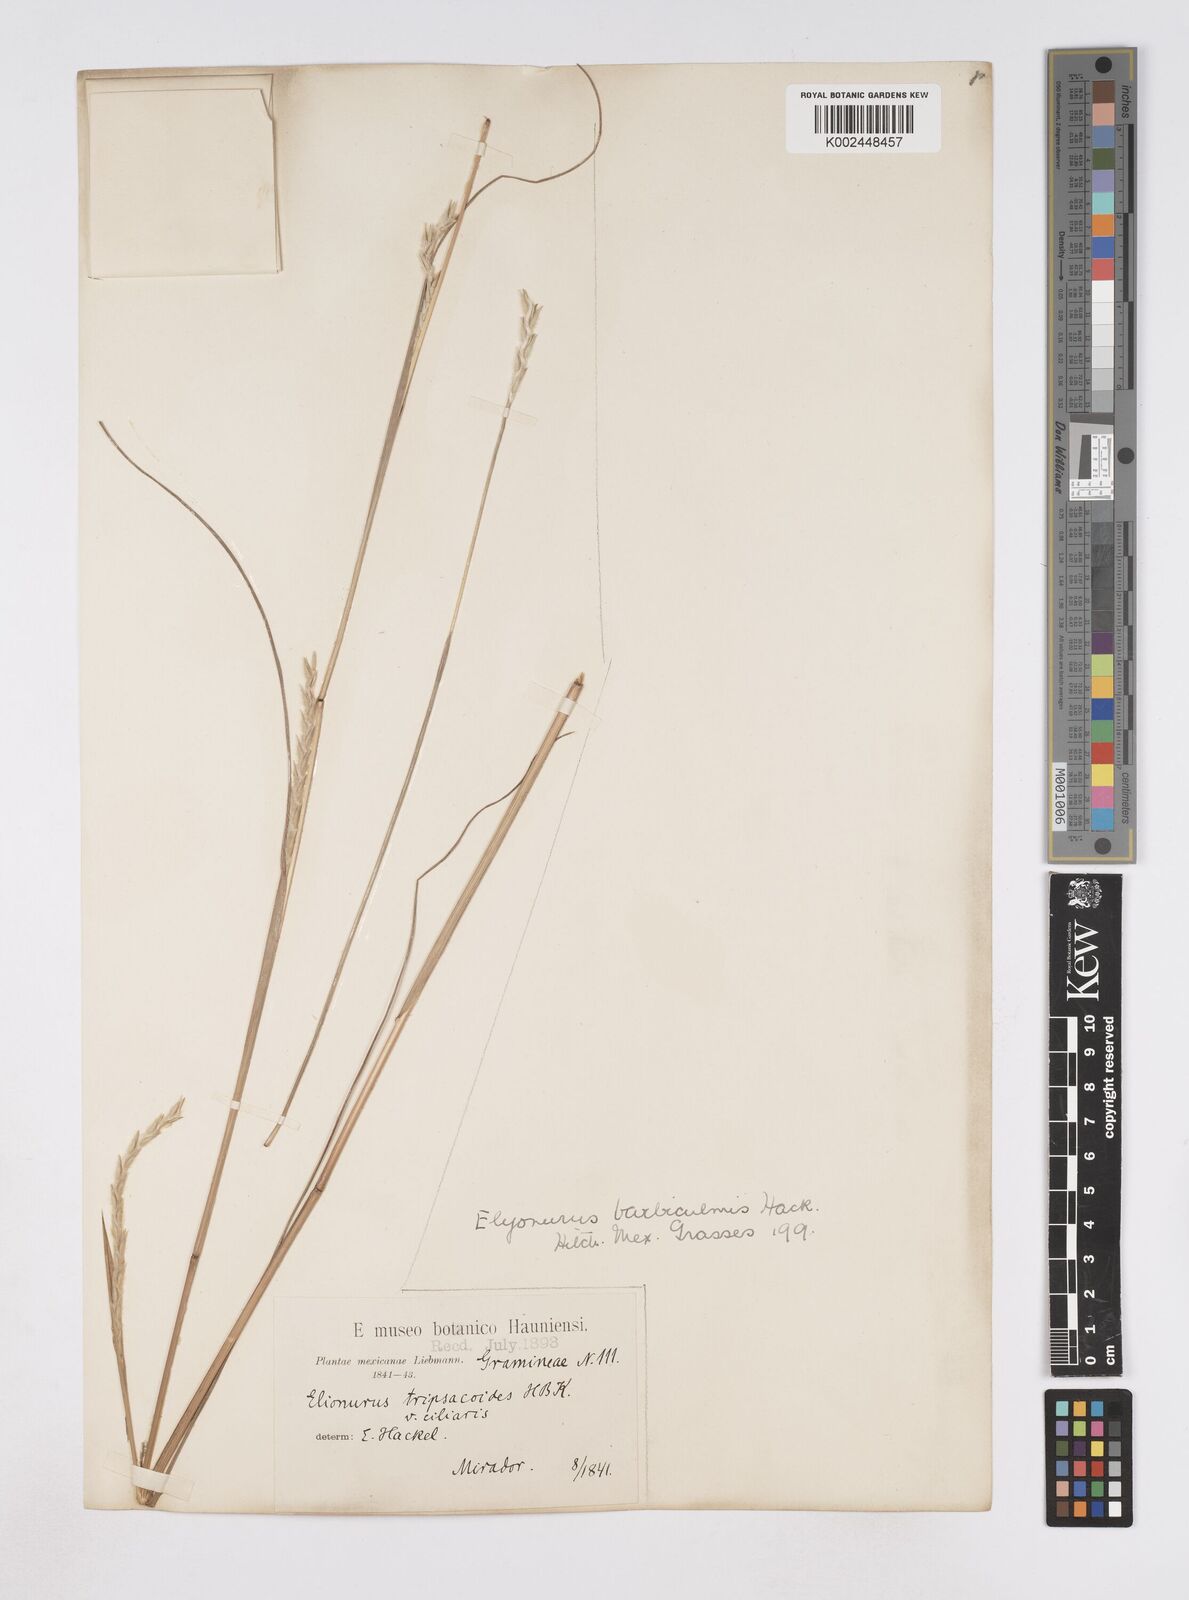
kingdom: Plantae
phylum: Tracheophyta
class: Liliopsida
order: Poales
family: Poaceae
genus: Elionurus
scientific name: Elionurus ciliaris
